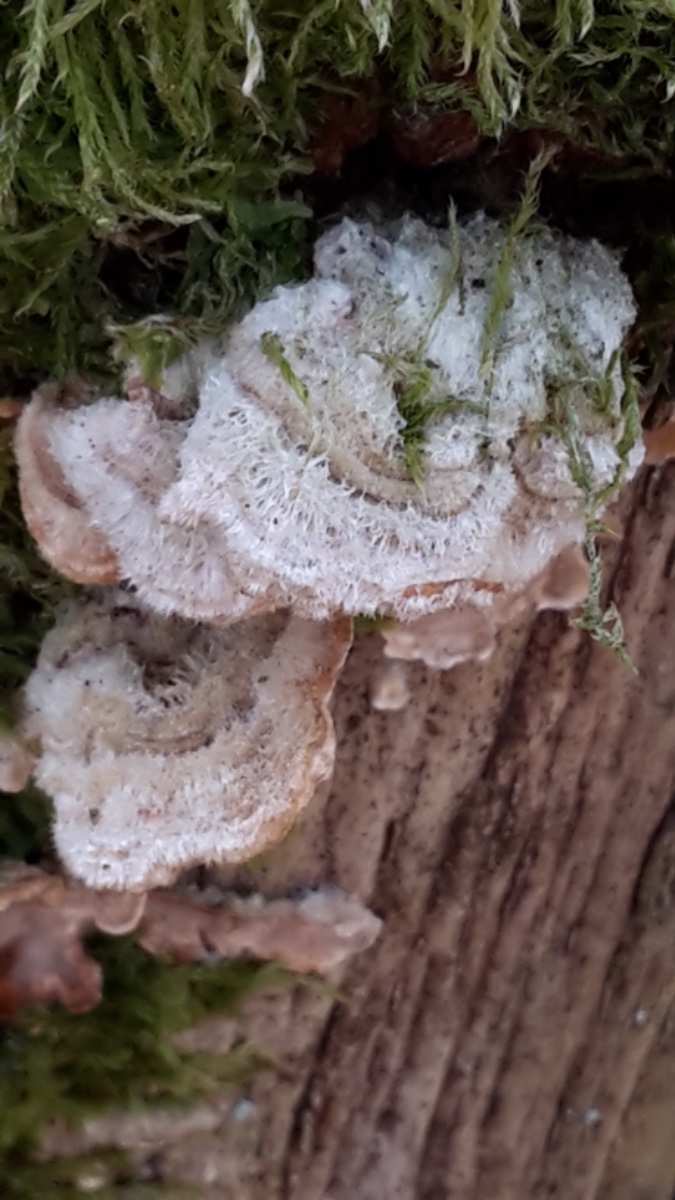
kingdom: Fungi
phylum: Basidiomycota
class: Agaricomycetes
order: Russulales
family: Stereaceae
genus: Stereum
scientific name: Stereum hirsutum
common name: håret lædersvamp
